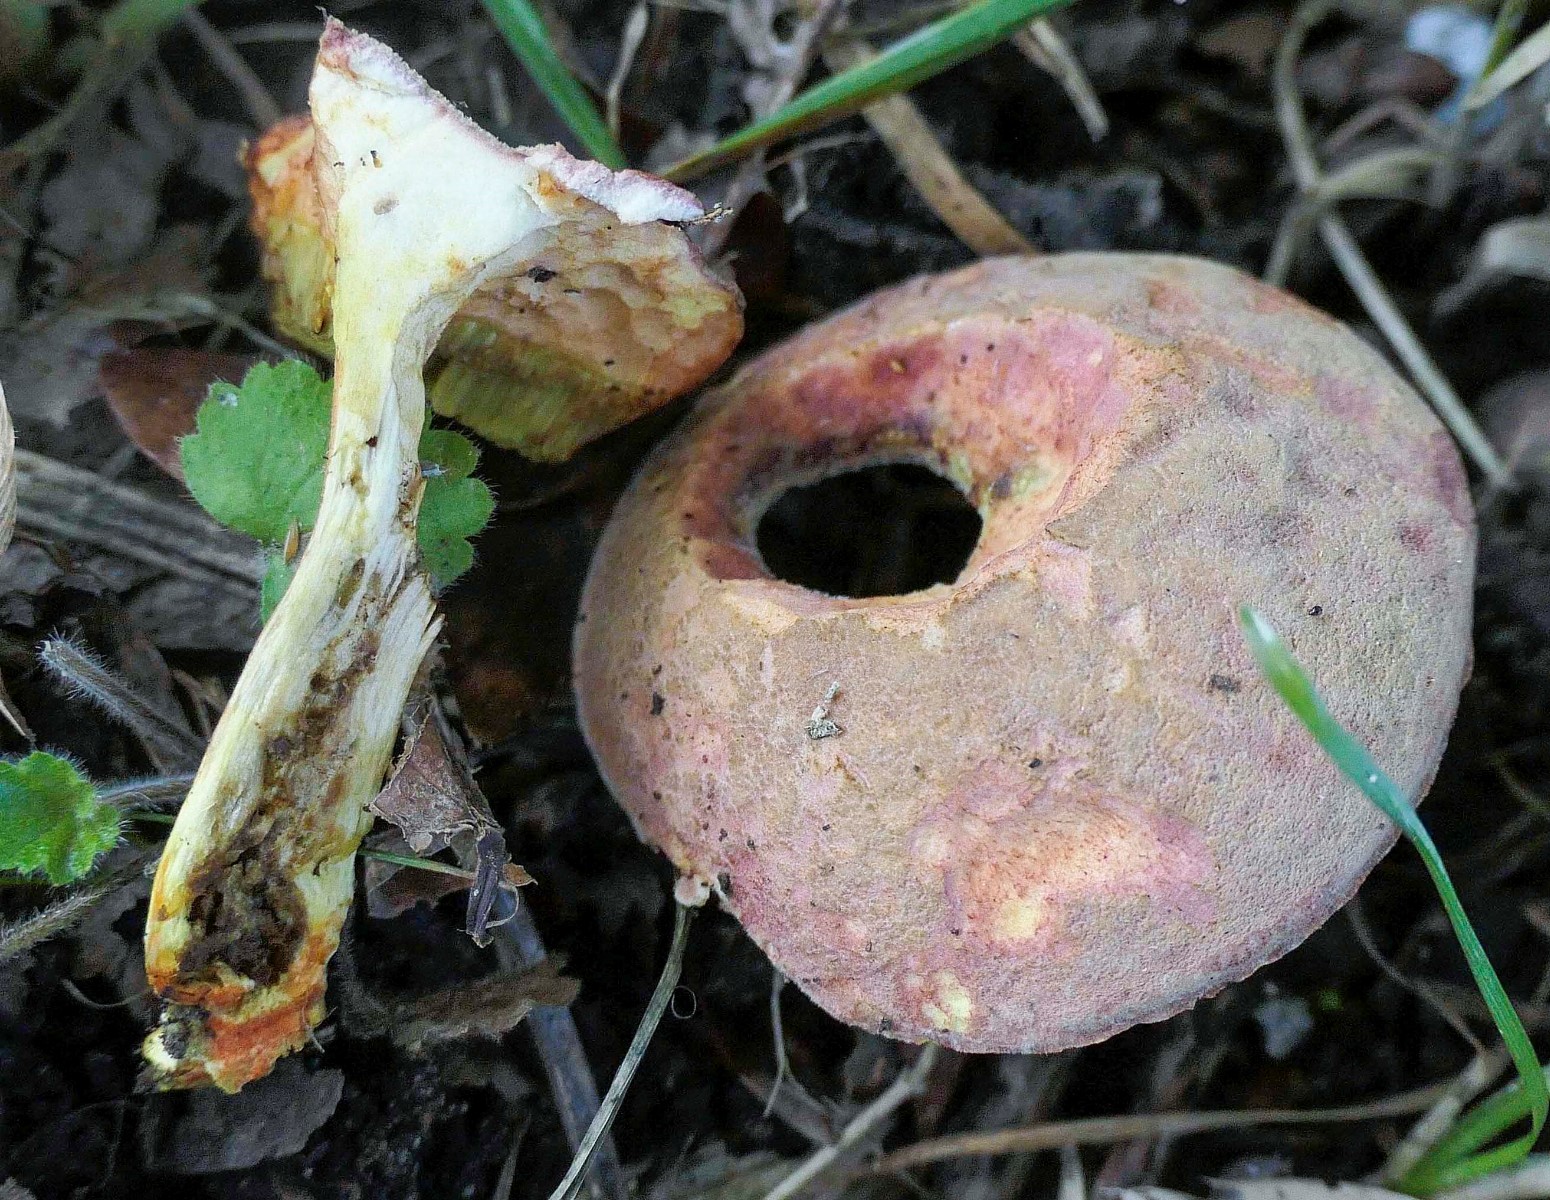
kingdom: Fungi
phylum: Basidiomycota
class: Agaricomycetes
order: Boletales
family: Boletaceae
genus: Hortiboletus
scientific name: Hortiboletus engelii
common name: fersken-rørhat
